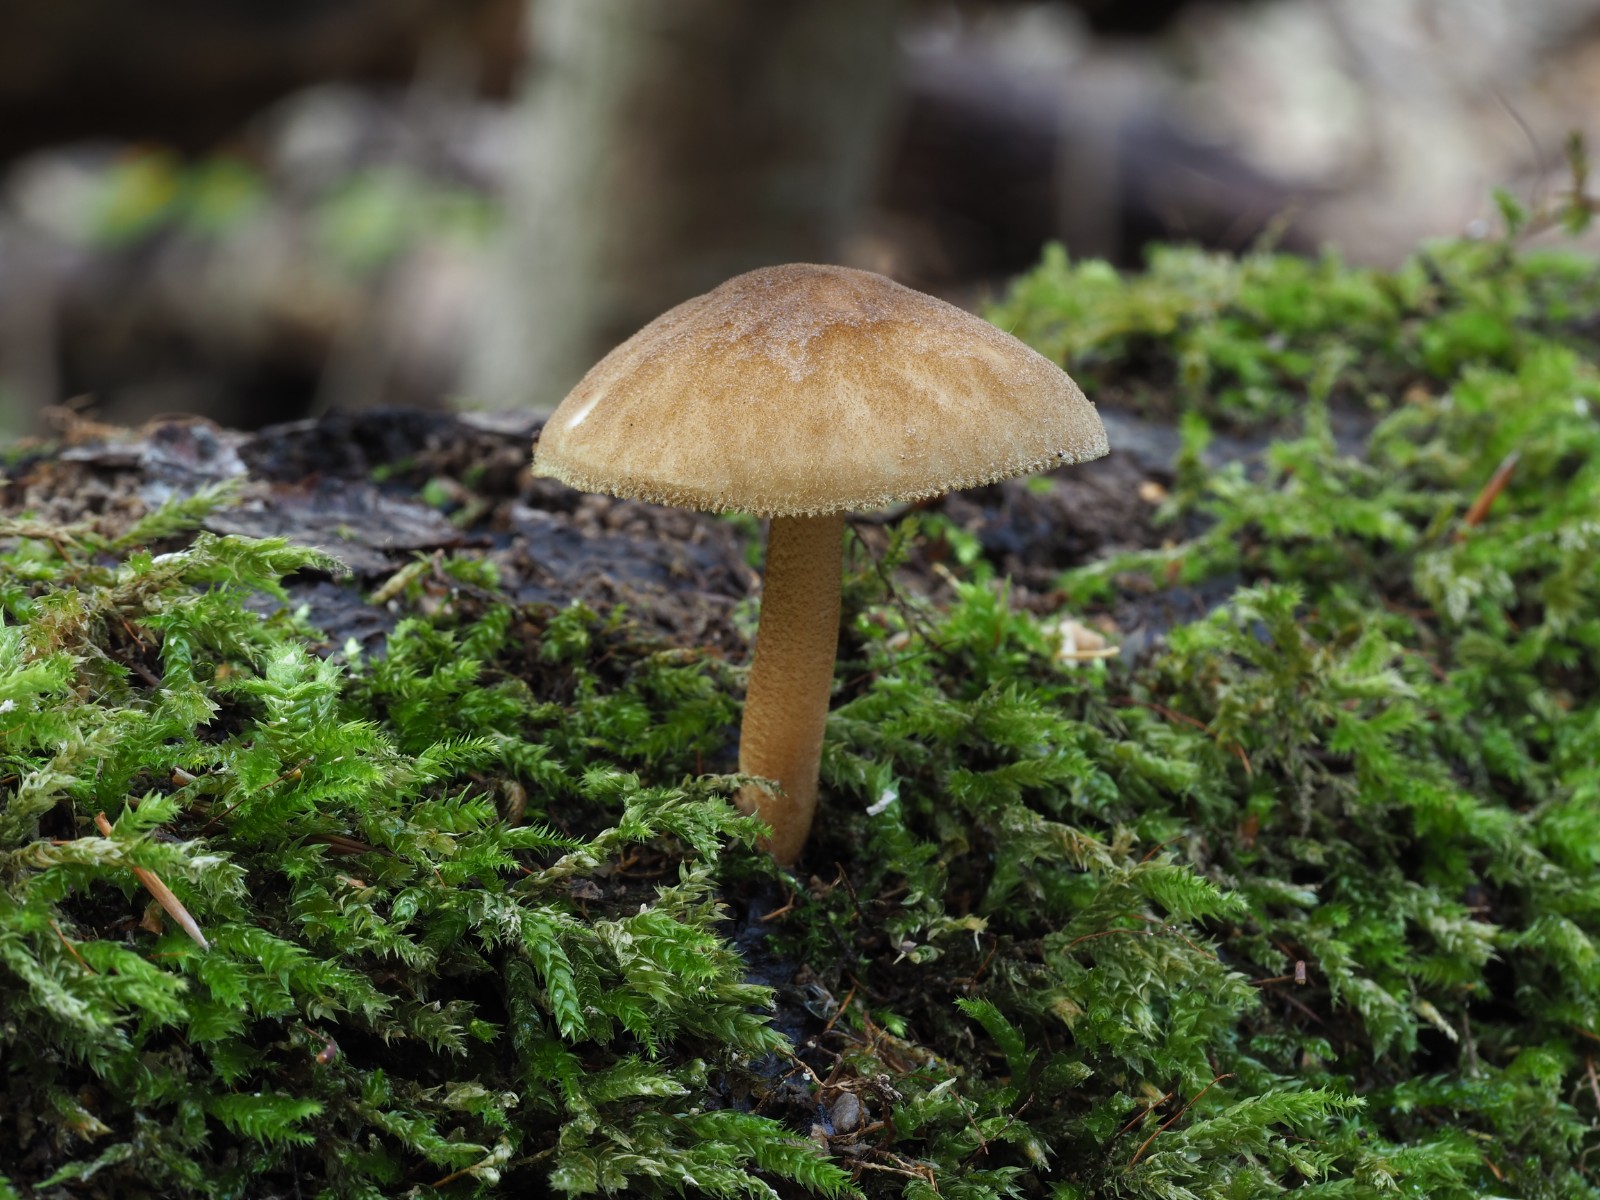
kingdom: Fungi
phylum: Basidiomycota
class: Agaricomycetes
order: Agaricales
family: Pluteaceae
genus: Pluteus
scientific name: Pluteus umbrosus
